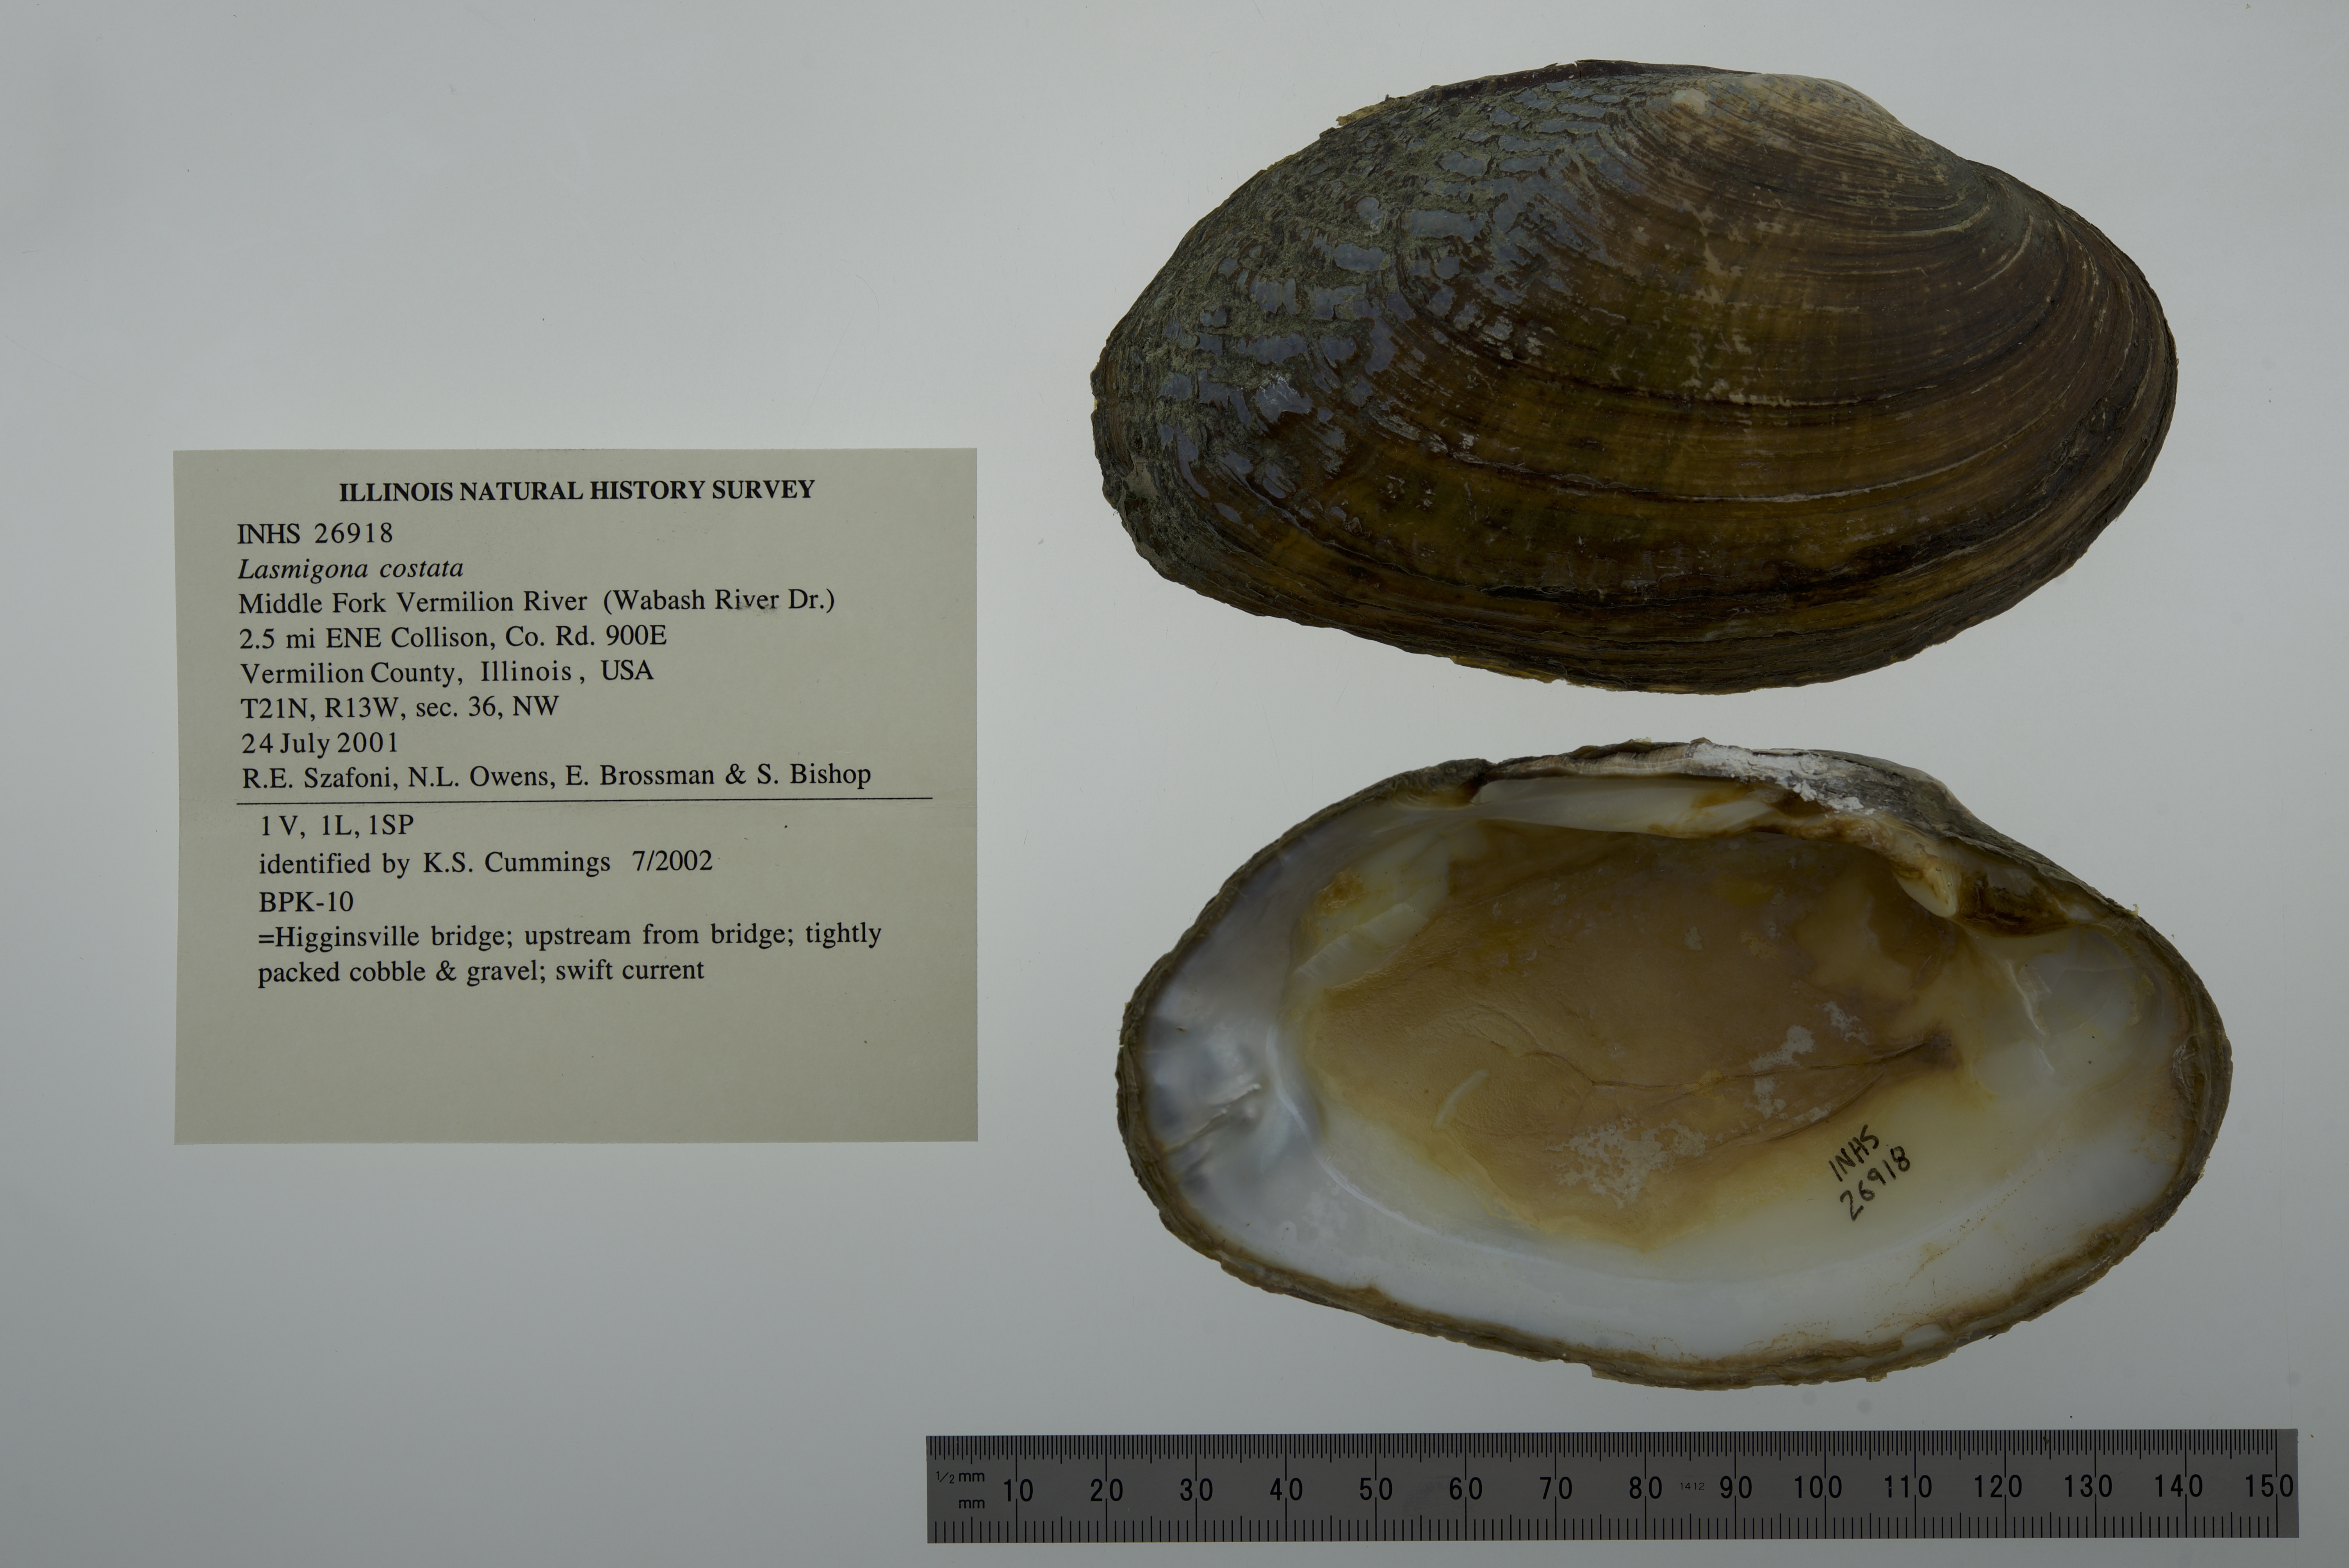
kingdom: Animalia
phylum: Mollusca
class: Bivalvia
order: Unionida
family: Unionidae
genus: Lasmigona
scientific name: Lasmigona costata
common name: Flutedshell
